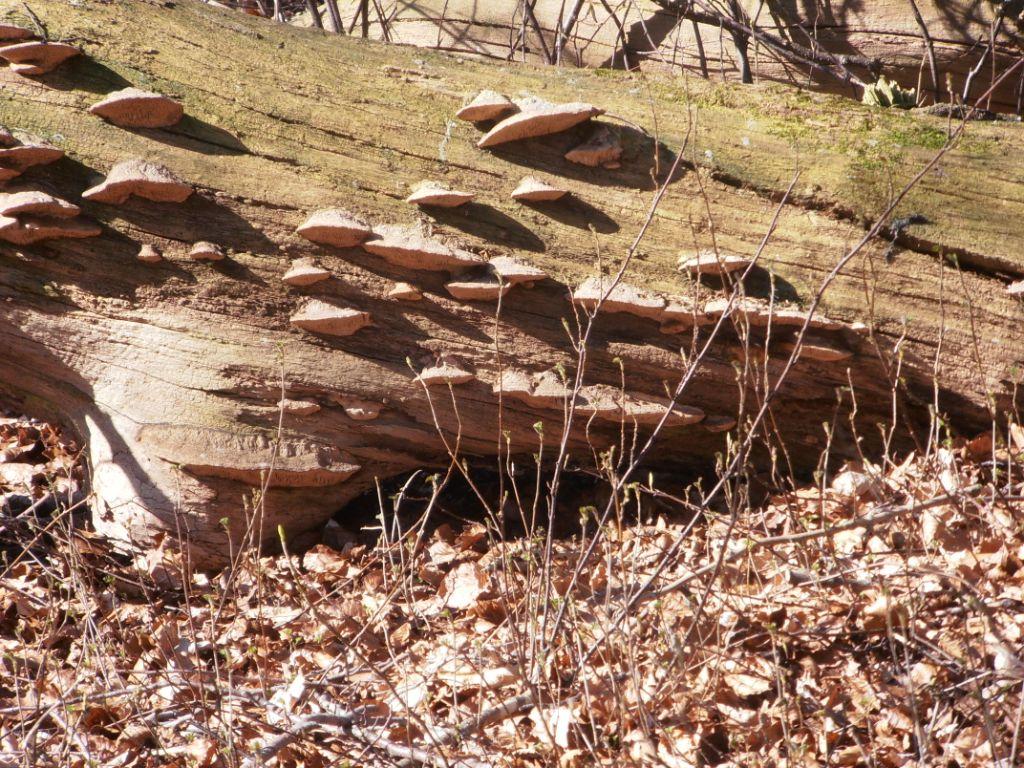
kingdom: Fungi
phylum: Basidiomycota
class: Agaricomycetes
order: Polyporales
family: Fomitopsidaceae
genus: Daedalea
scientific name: Daedalea quercina
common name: ege-labyrintsvamp
